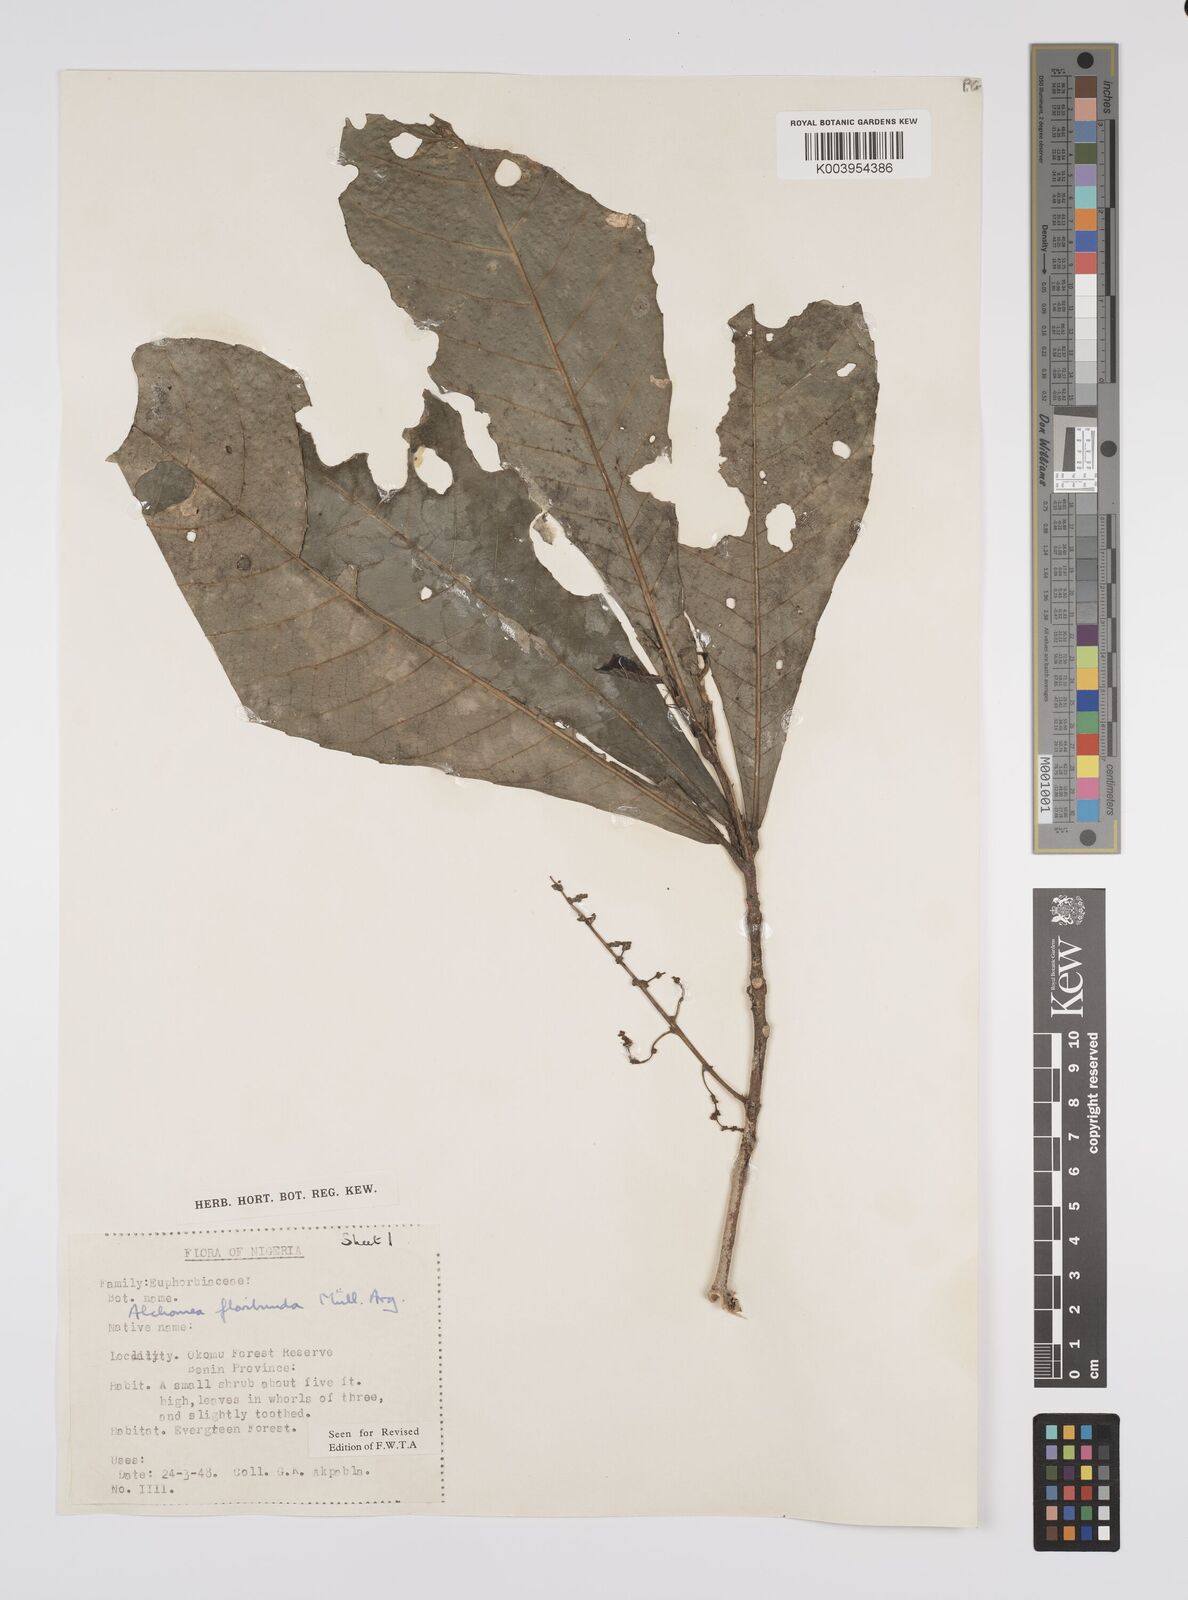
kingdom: Plantae
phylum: Tracheophyta
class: Magnoliopsida
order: Malpighiales
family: Euphorbiaceae
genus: Alchornea
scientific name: Alchornea floribunda
